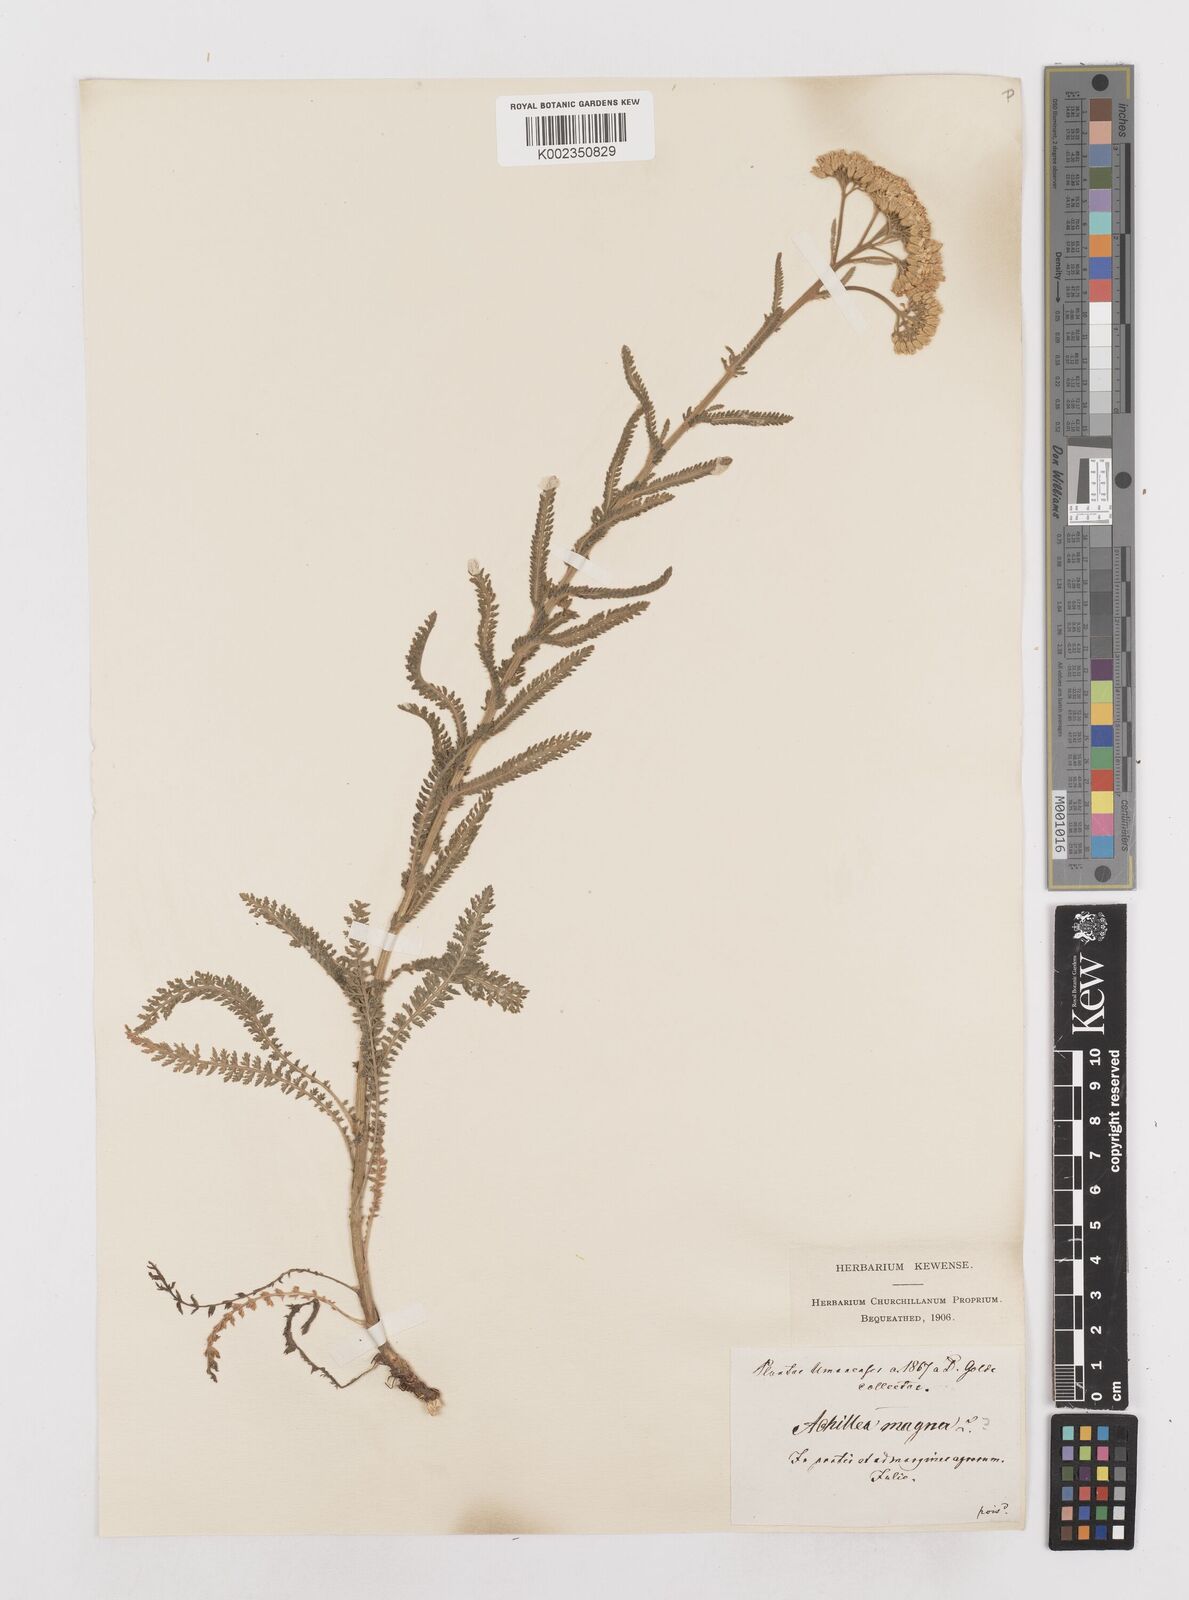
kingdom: Plantae
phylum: Tracheophyta
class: Magnoliopsida
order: Asterales
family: Asteraceae
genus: Achillea
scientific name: Achillea distans
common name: Tall yarrow
